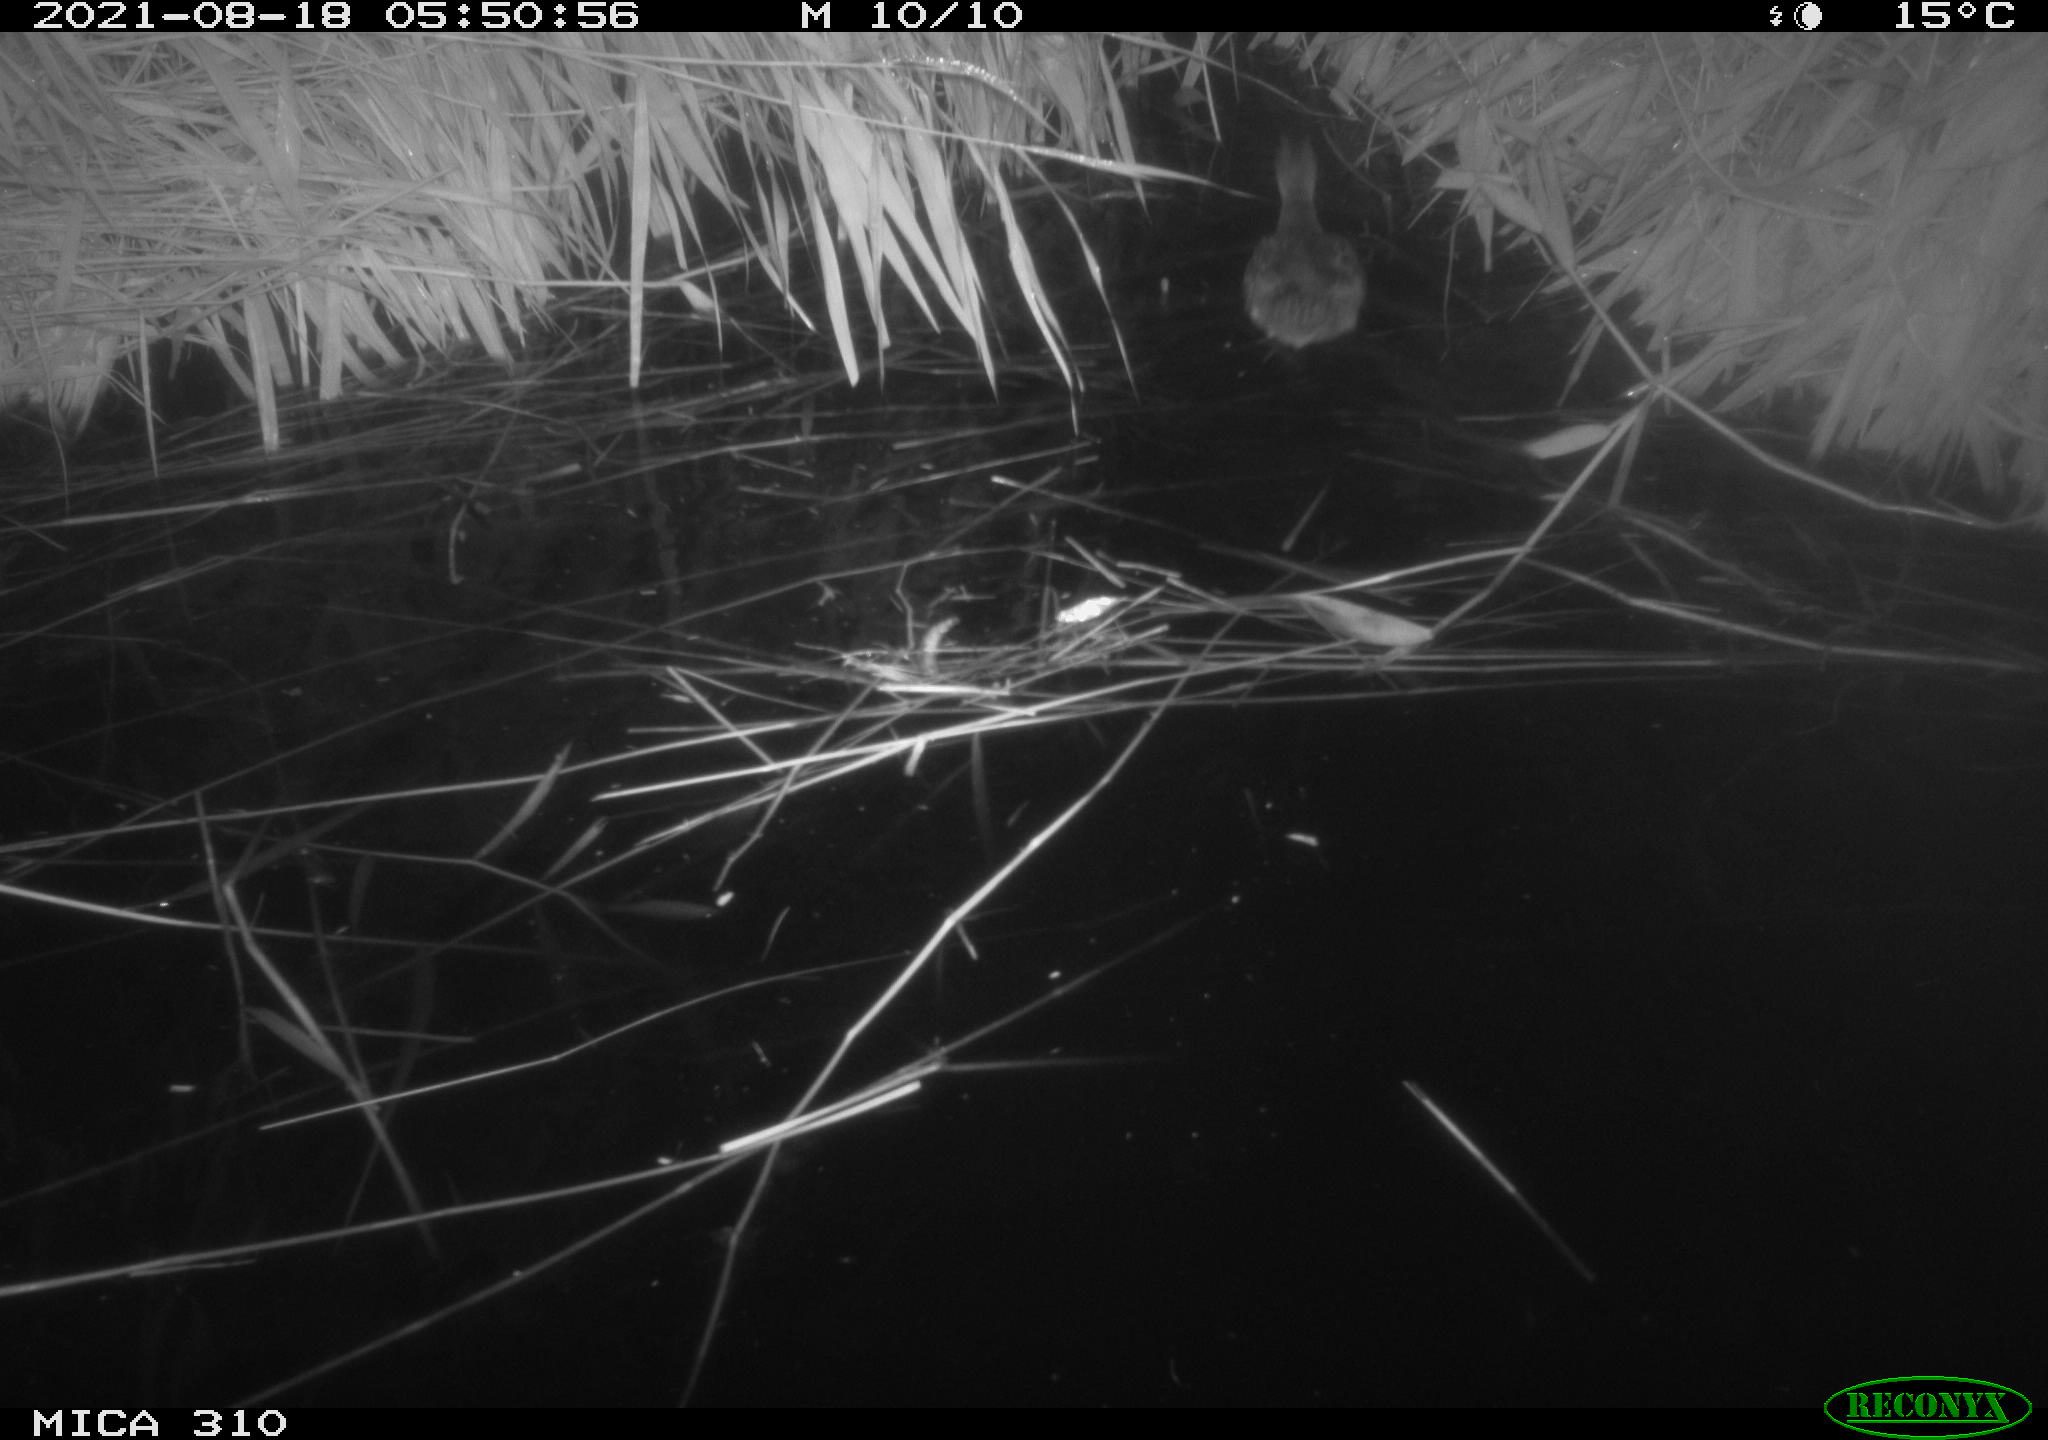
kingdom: Animalia
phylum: Chordata
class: Aves
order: Anseriformes
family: Anatidae
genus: Anas
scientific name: Anas platyrhynchos
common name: Mallard
